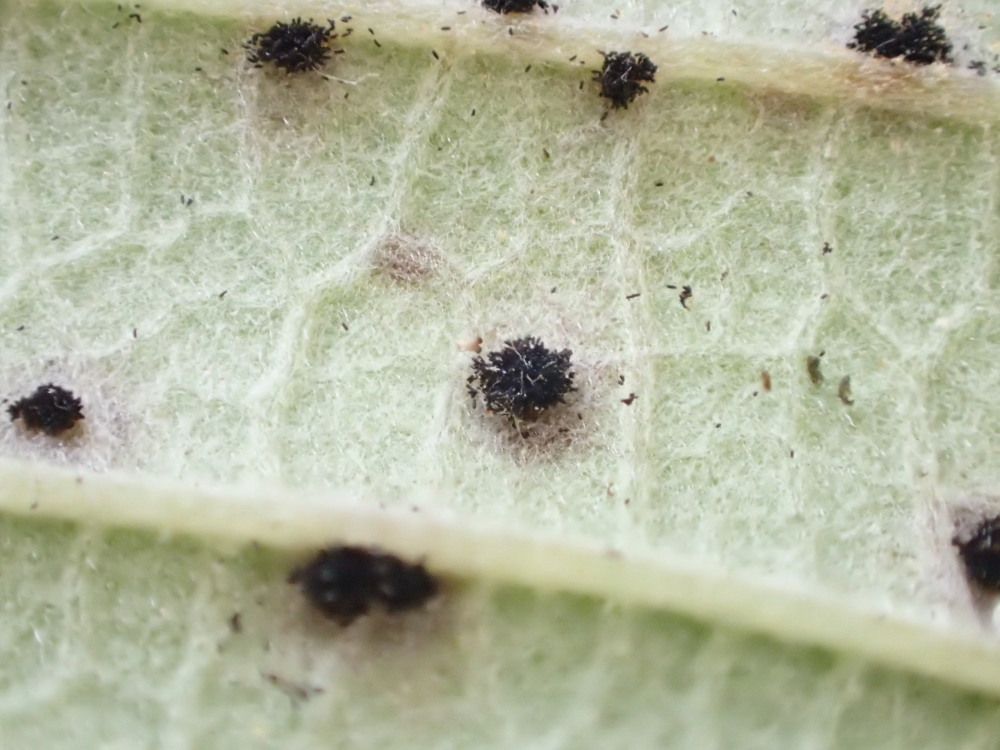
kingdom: Fungi
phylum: Basidiomycota
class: Pucciniomycetes
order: Pucciniales
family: Phragmidiaceae
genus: Phragmidium
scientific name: Phragmidium violaceum
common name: violet flercellerust
